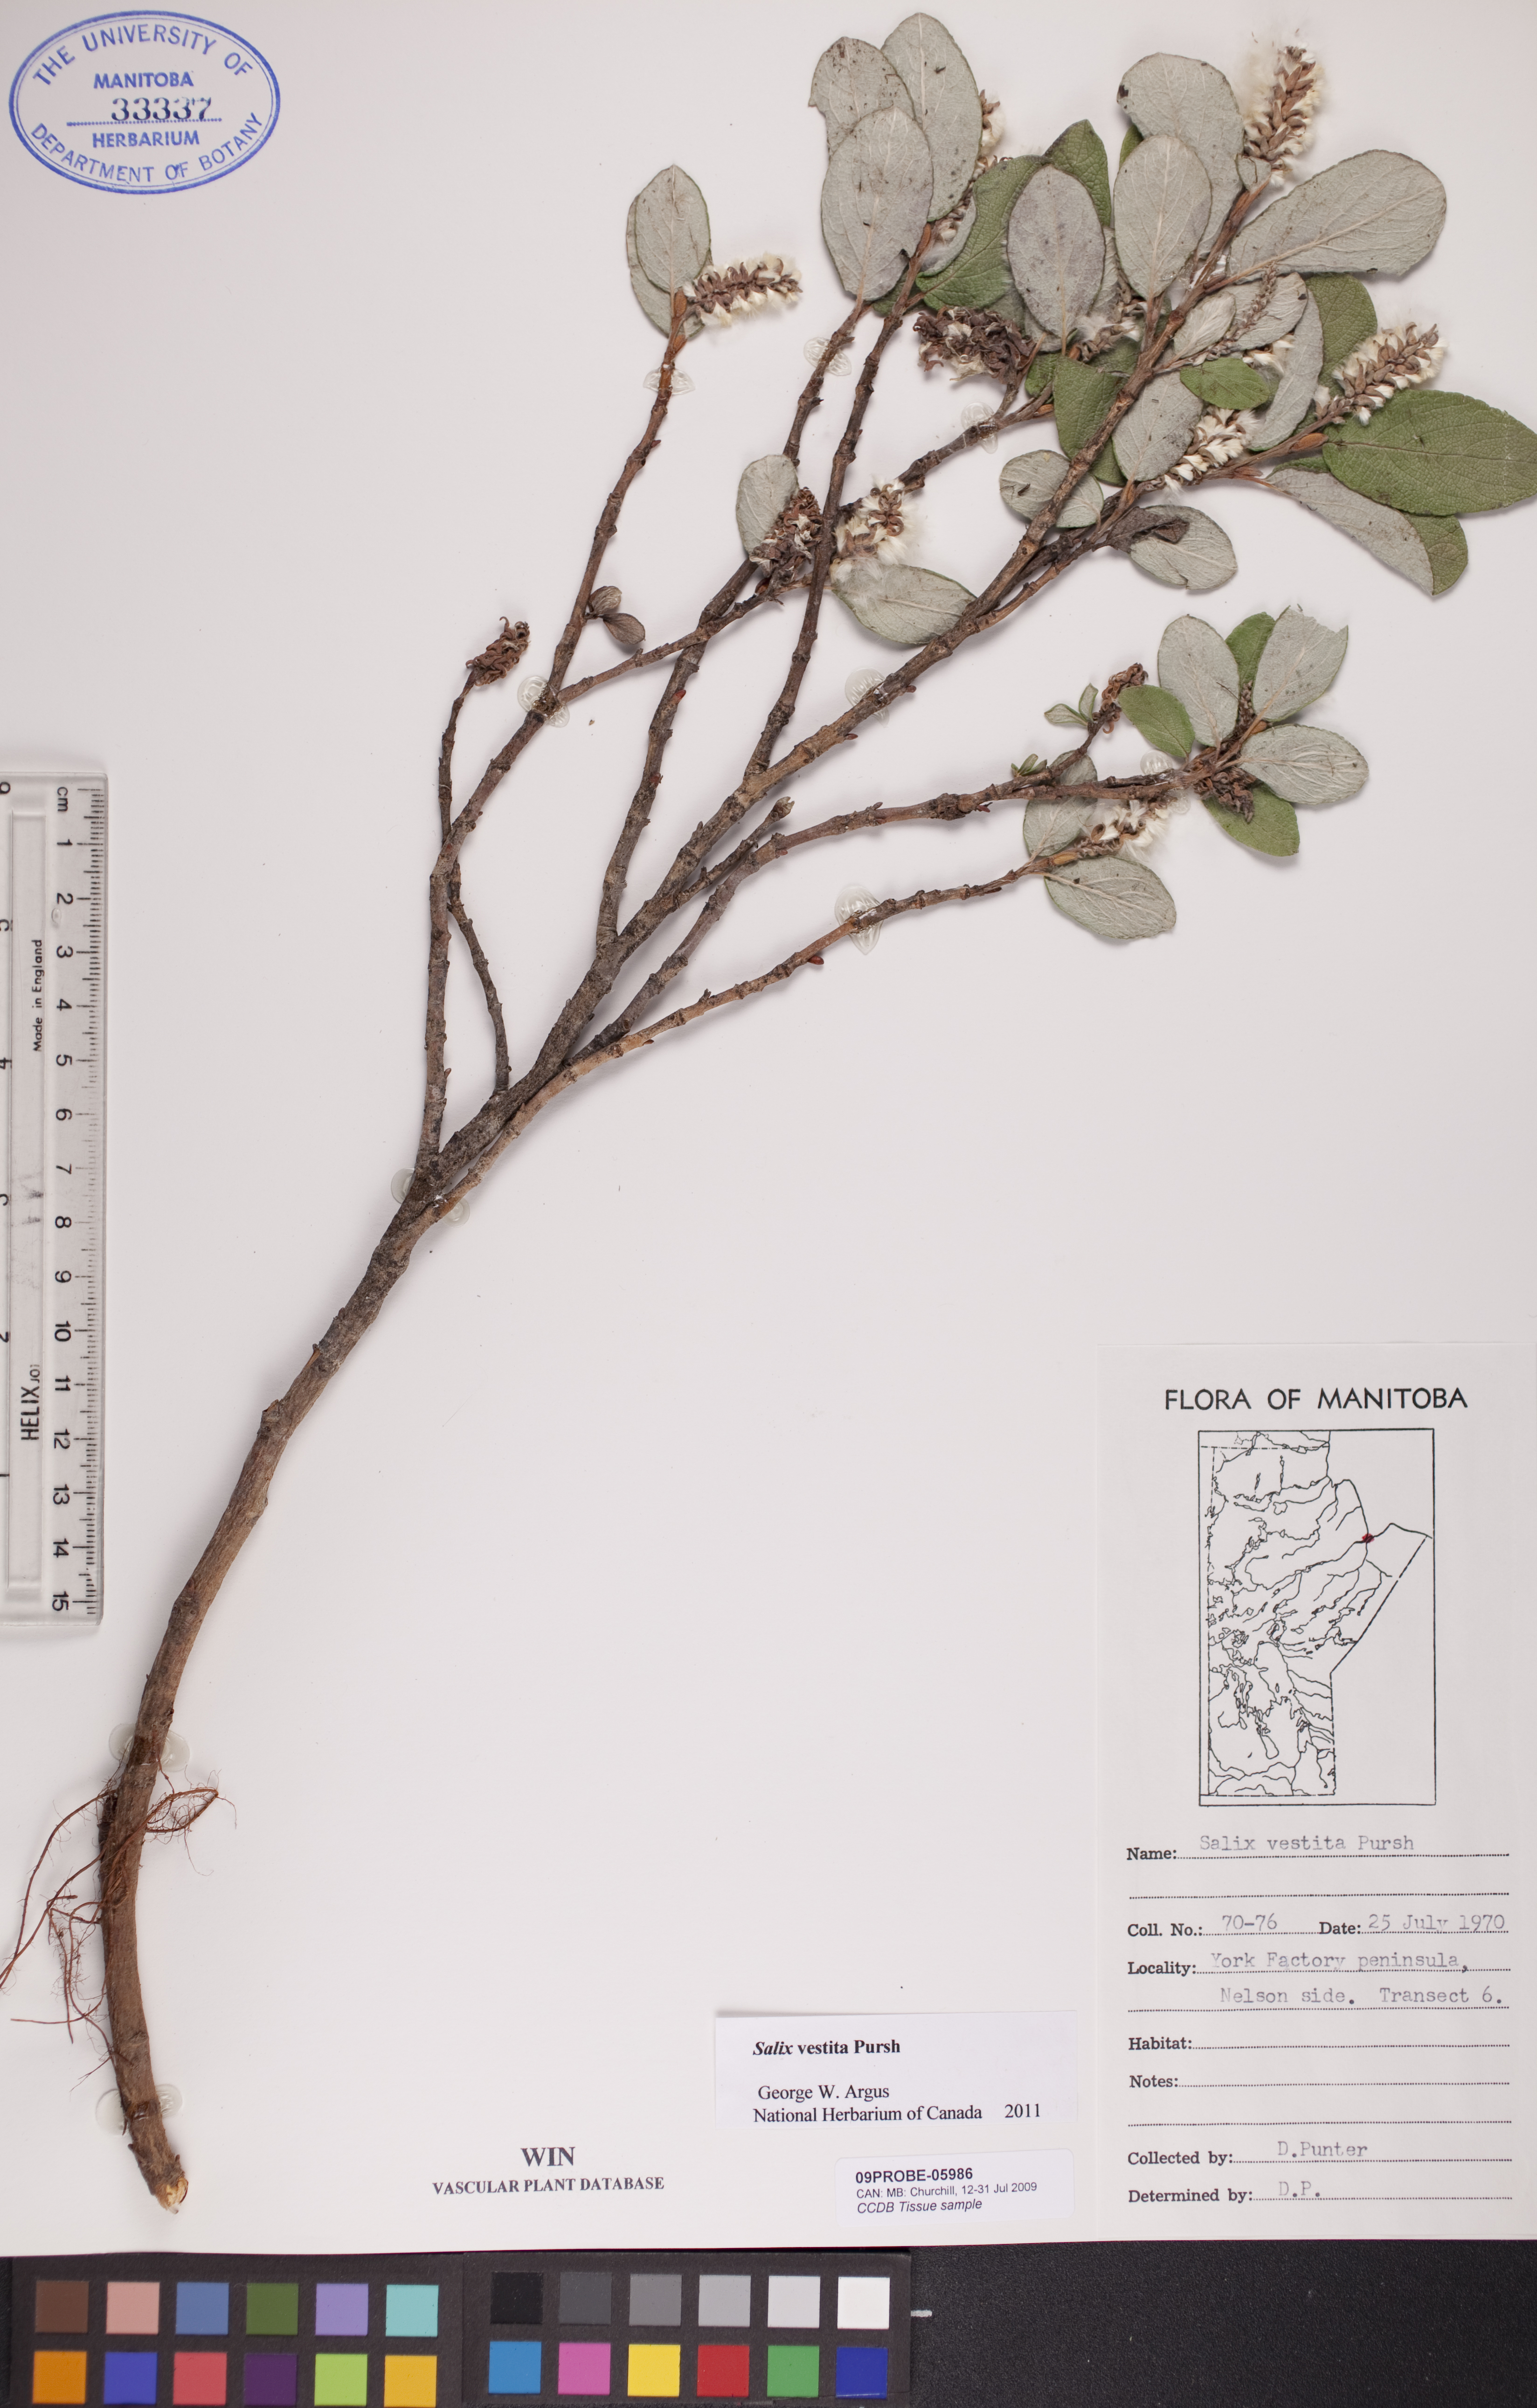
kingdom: Plantae
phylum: Tracheophyta
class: Magnoliopsida
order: Malpighiales
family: Salicaceae
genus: Salix
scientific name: Salix vestita
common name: Hairy willow
